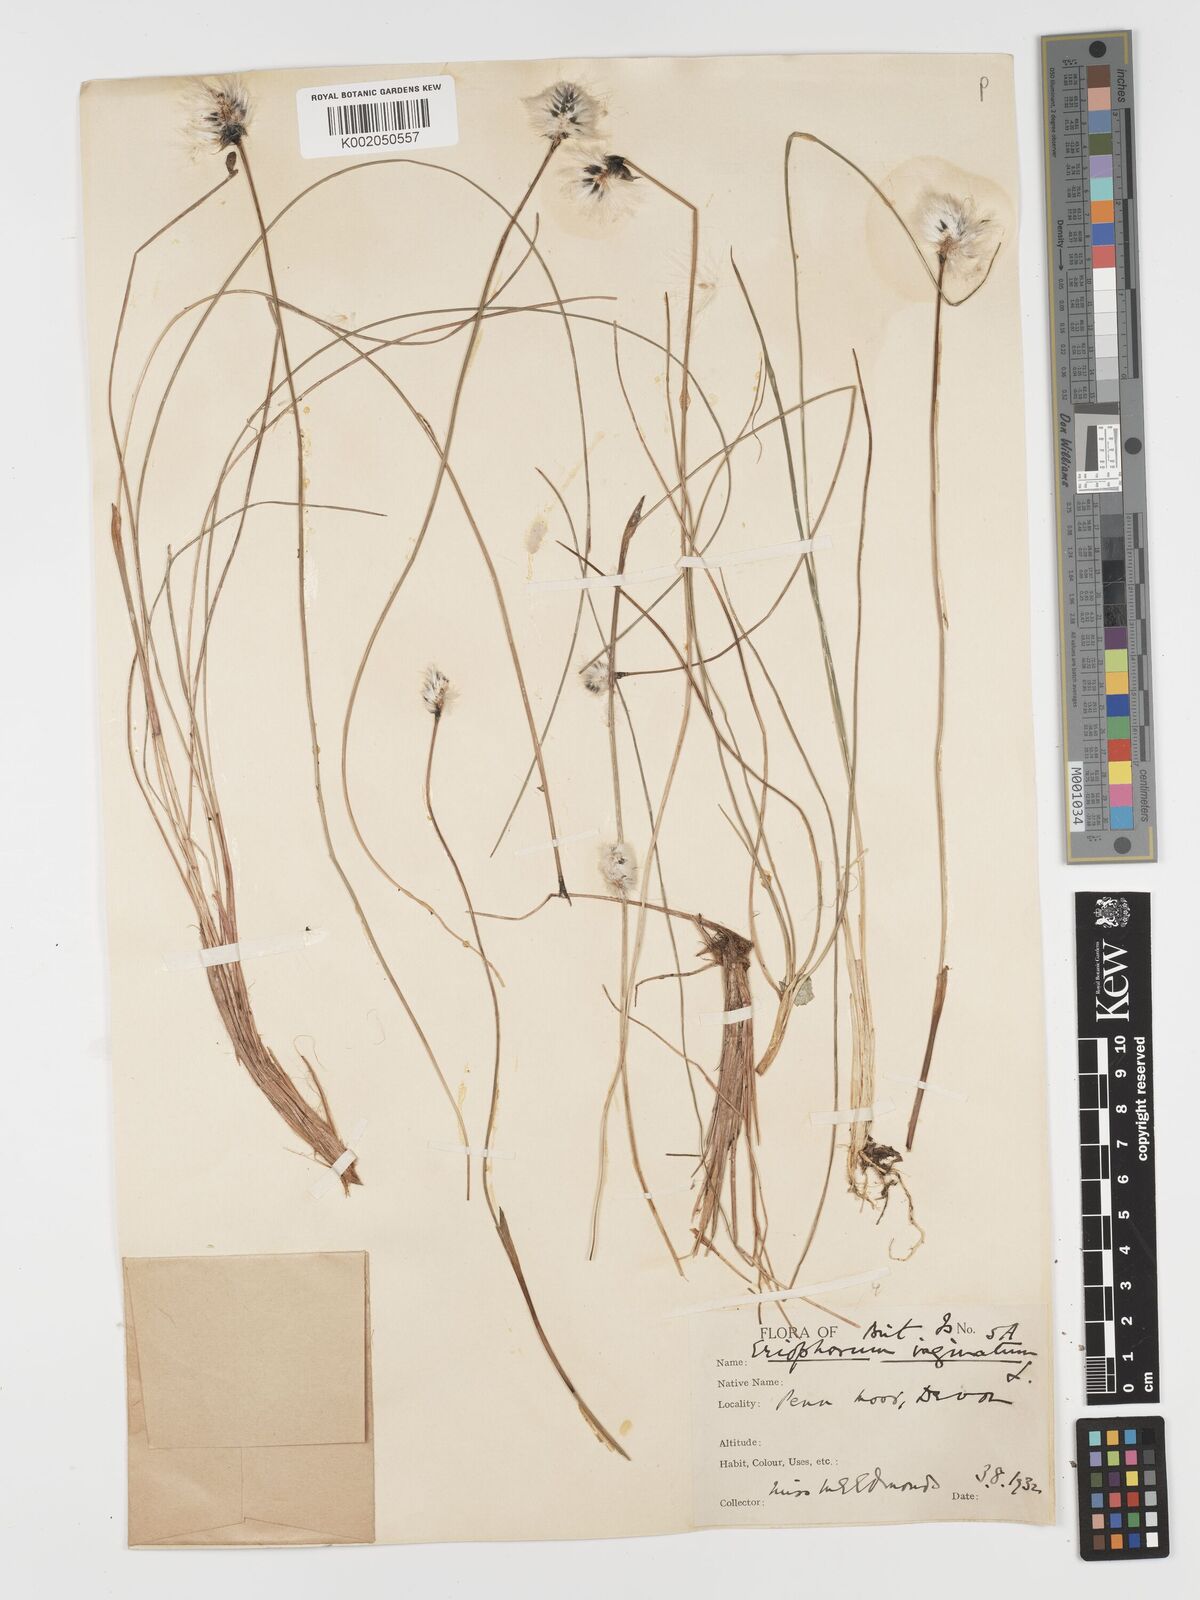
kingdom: Plantae
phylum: Tracheophyta
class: Liliopsida
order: Poales
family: Cyperaceae
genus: Eriophorum
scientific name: Eriophorum vaginatum
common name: Hare's-tail cottongrass
